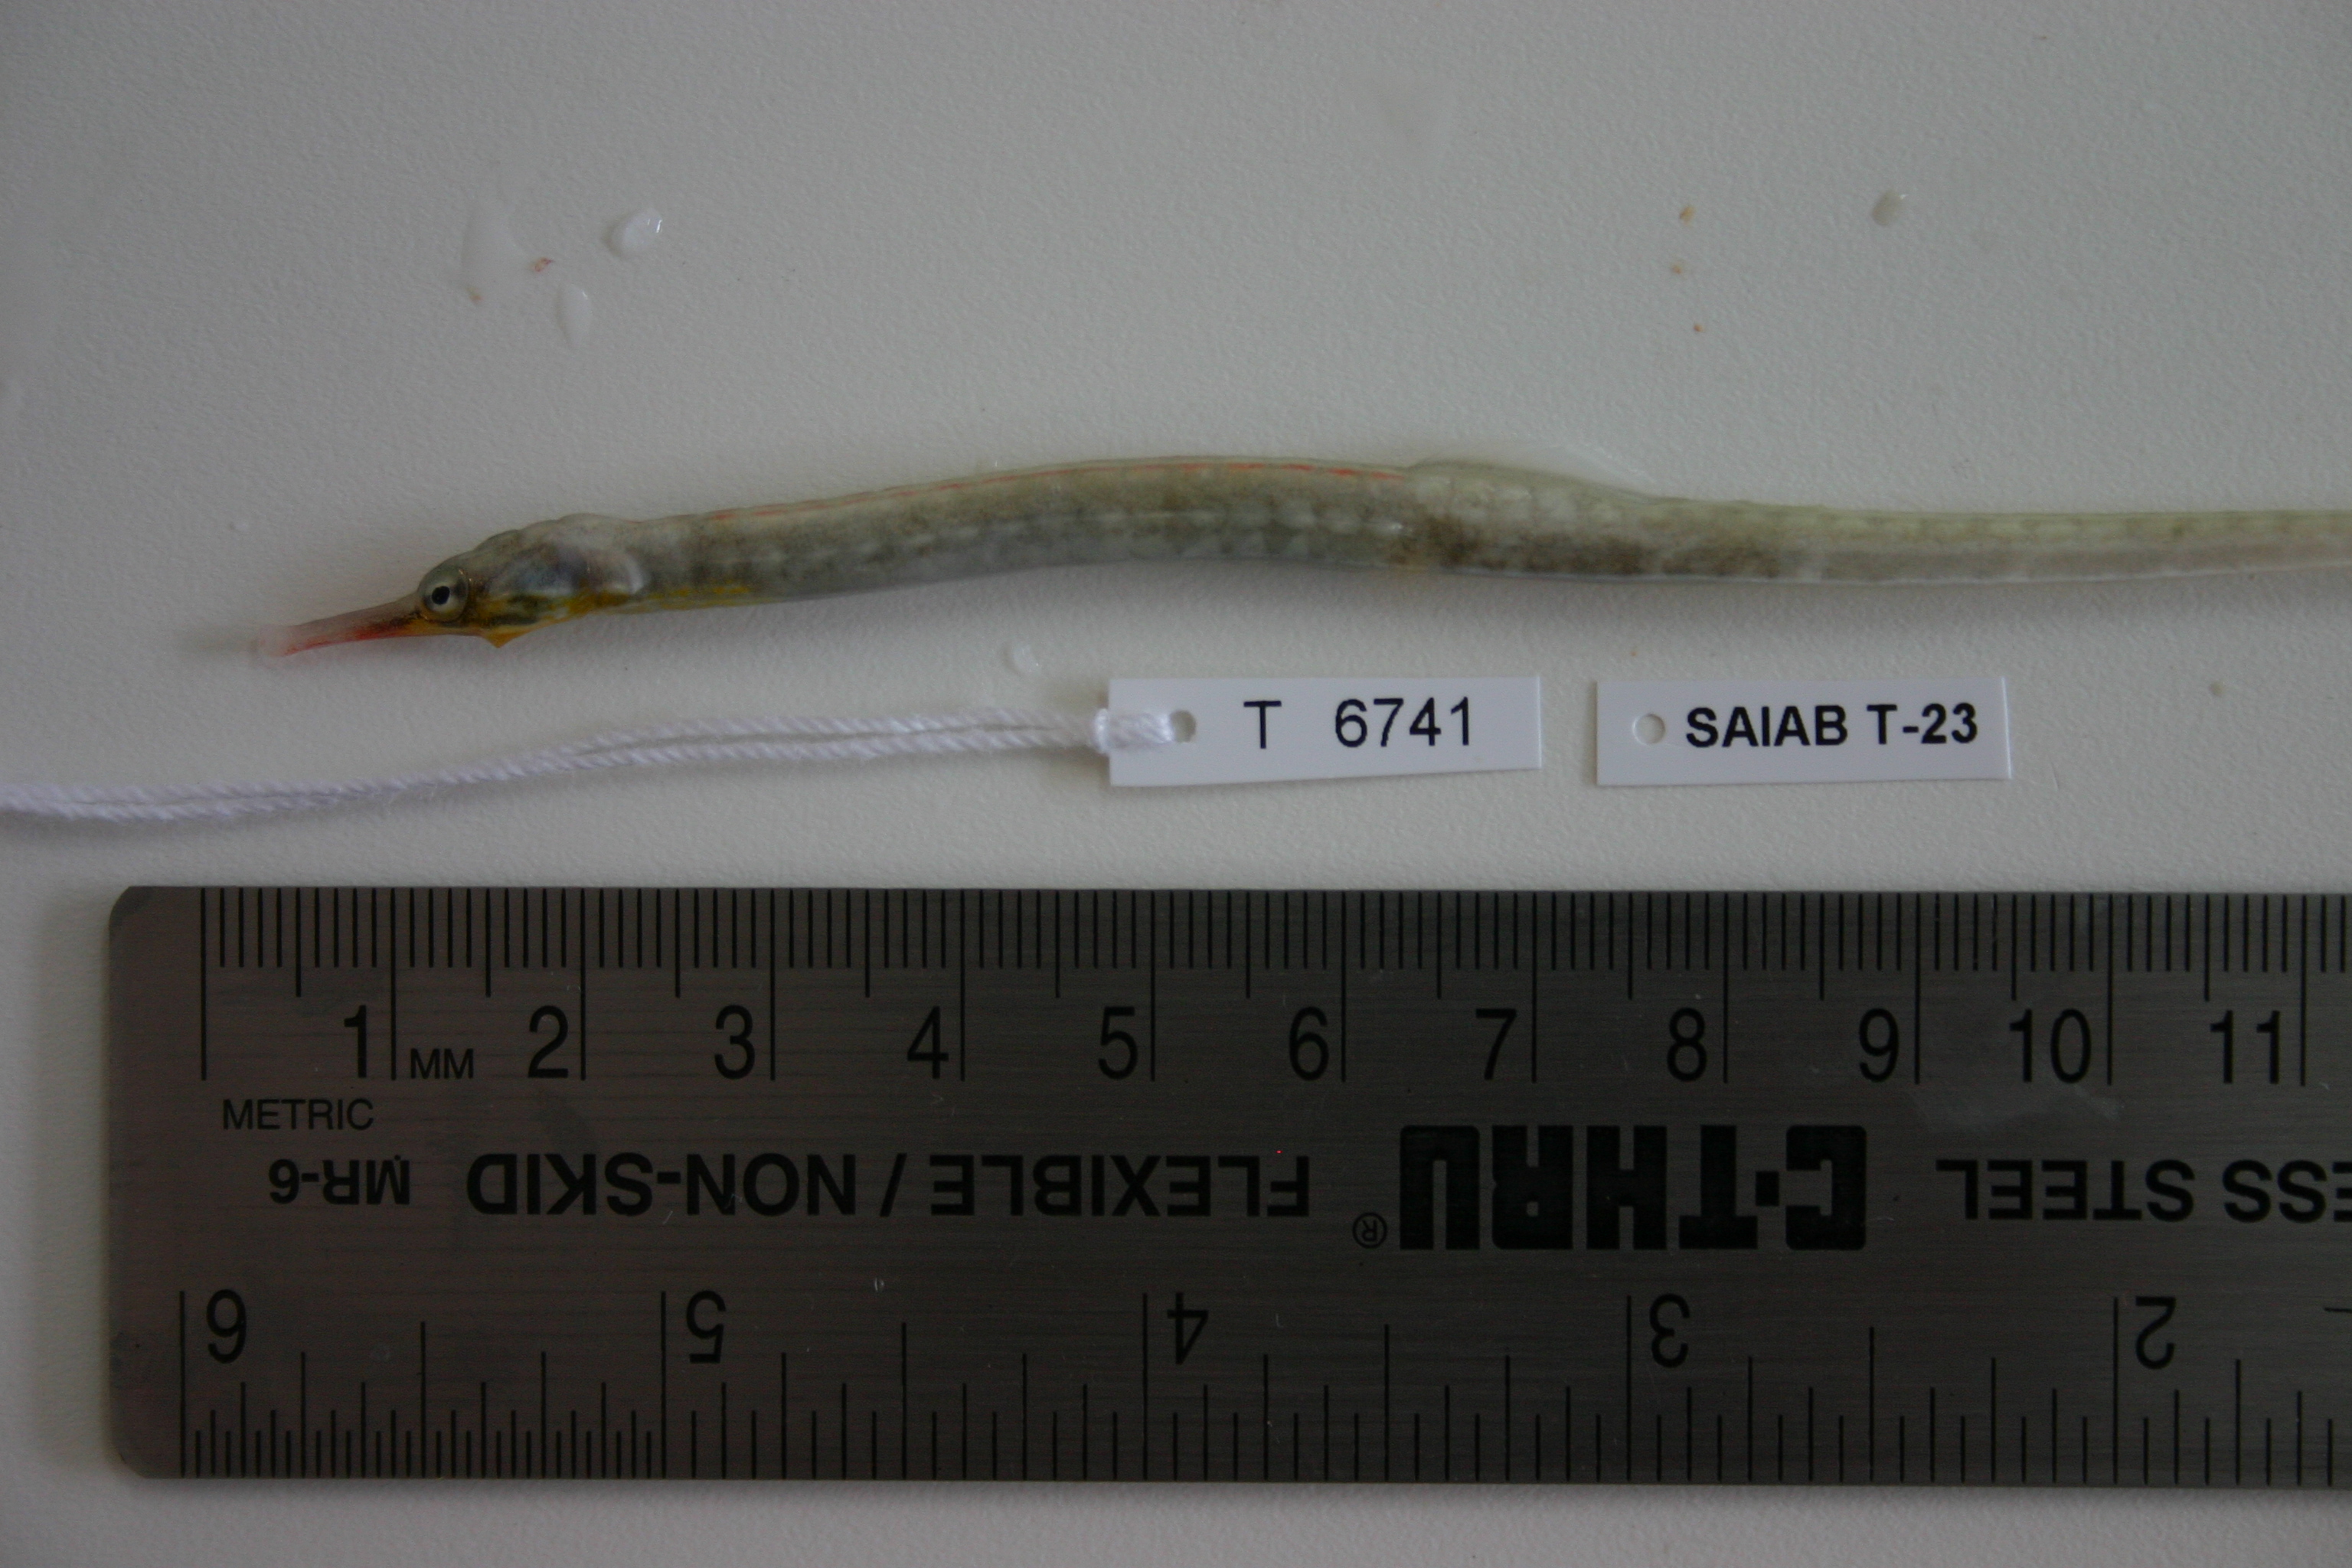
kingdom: Animalia
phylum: Chordata
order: Syngnathiformes
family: Syngnathidae
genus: Corythoichthys
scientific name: Corythoichthys
